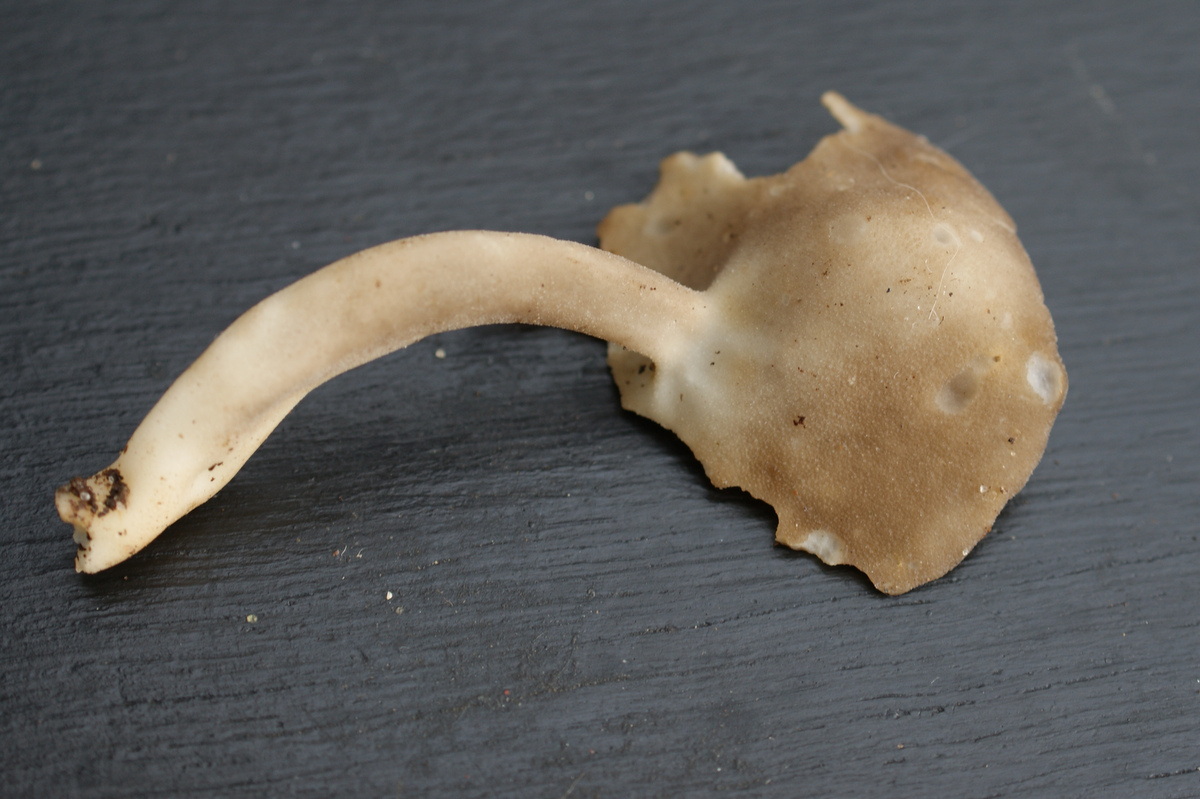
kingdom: Fungi
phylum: Ascomycota
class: Pezizomycetes
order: Pezizales
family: Helvellaceae
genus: Helvella
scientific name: Helvella fibrosa
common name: dunstokket foldhat
